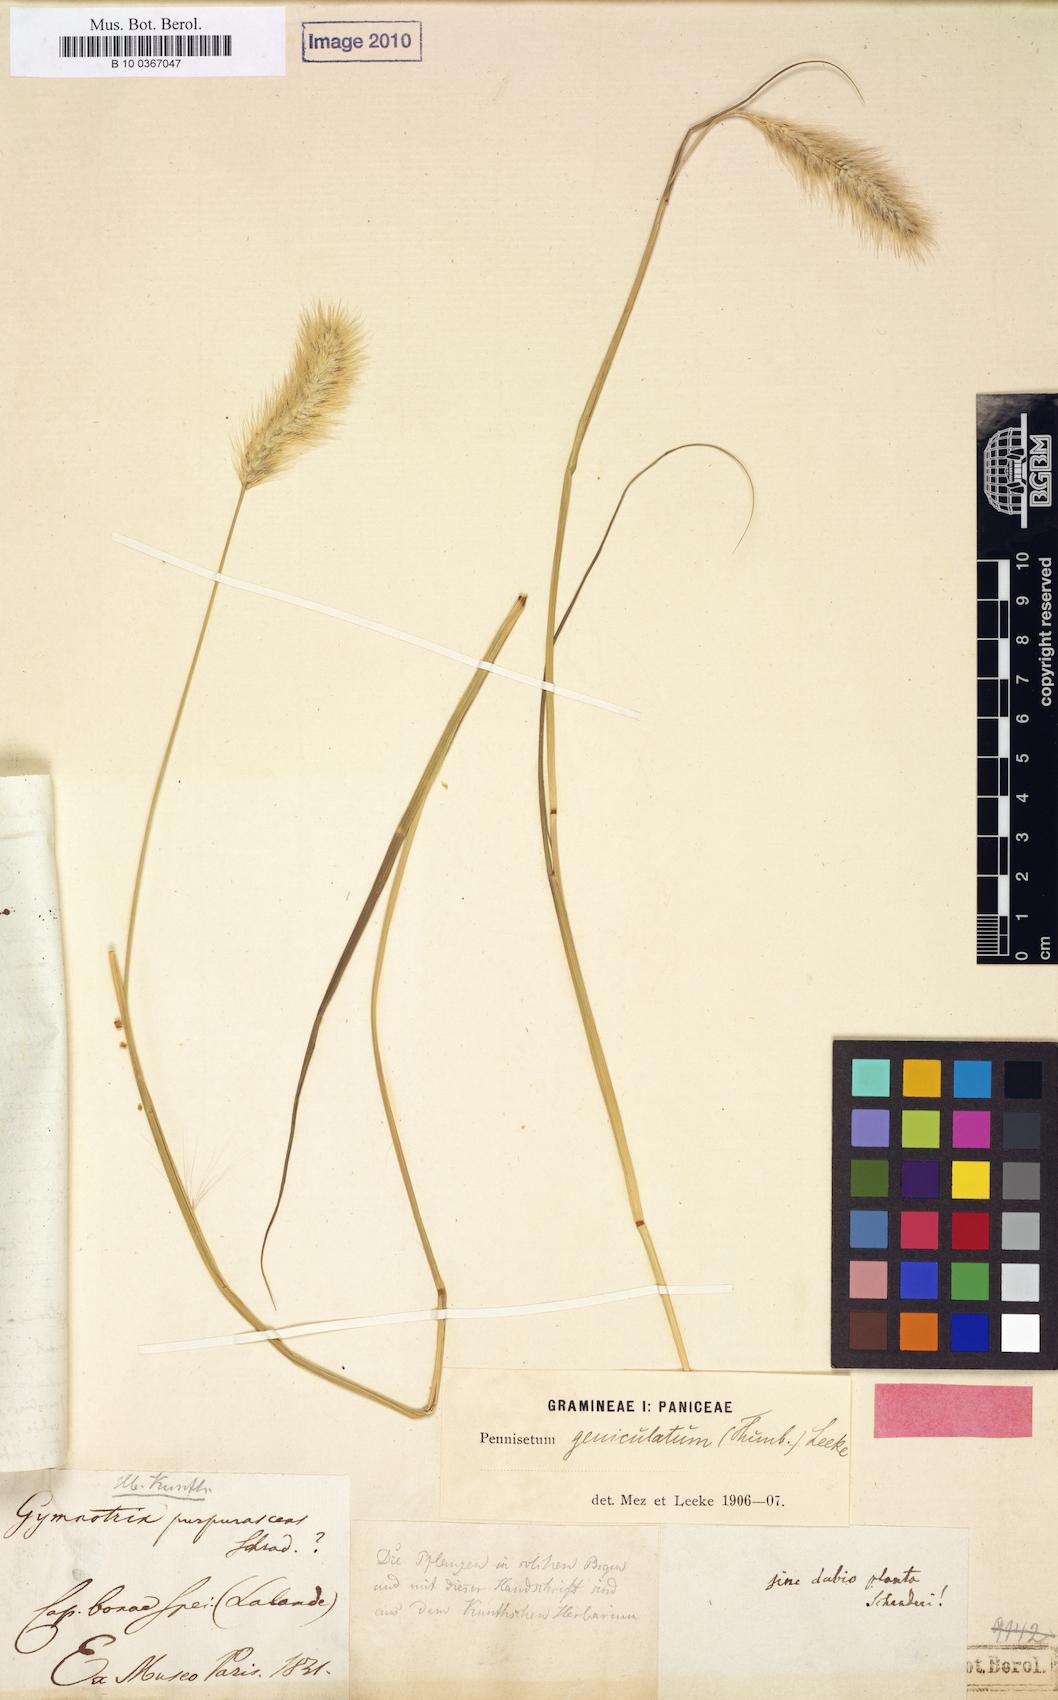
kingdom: Plantae
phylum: Tracheophyta
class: Liliopsida
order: Poales
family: Poaceae
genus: Cenchrus
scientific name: Cenchrus geniculatus
